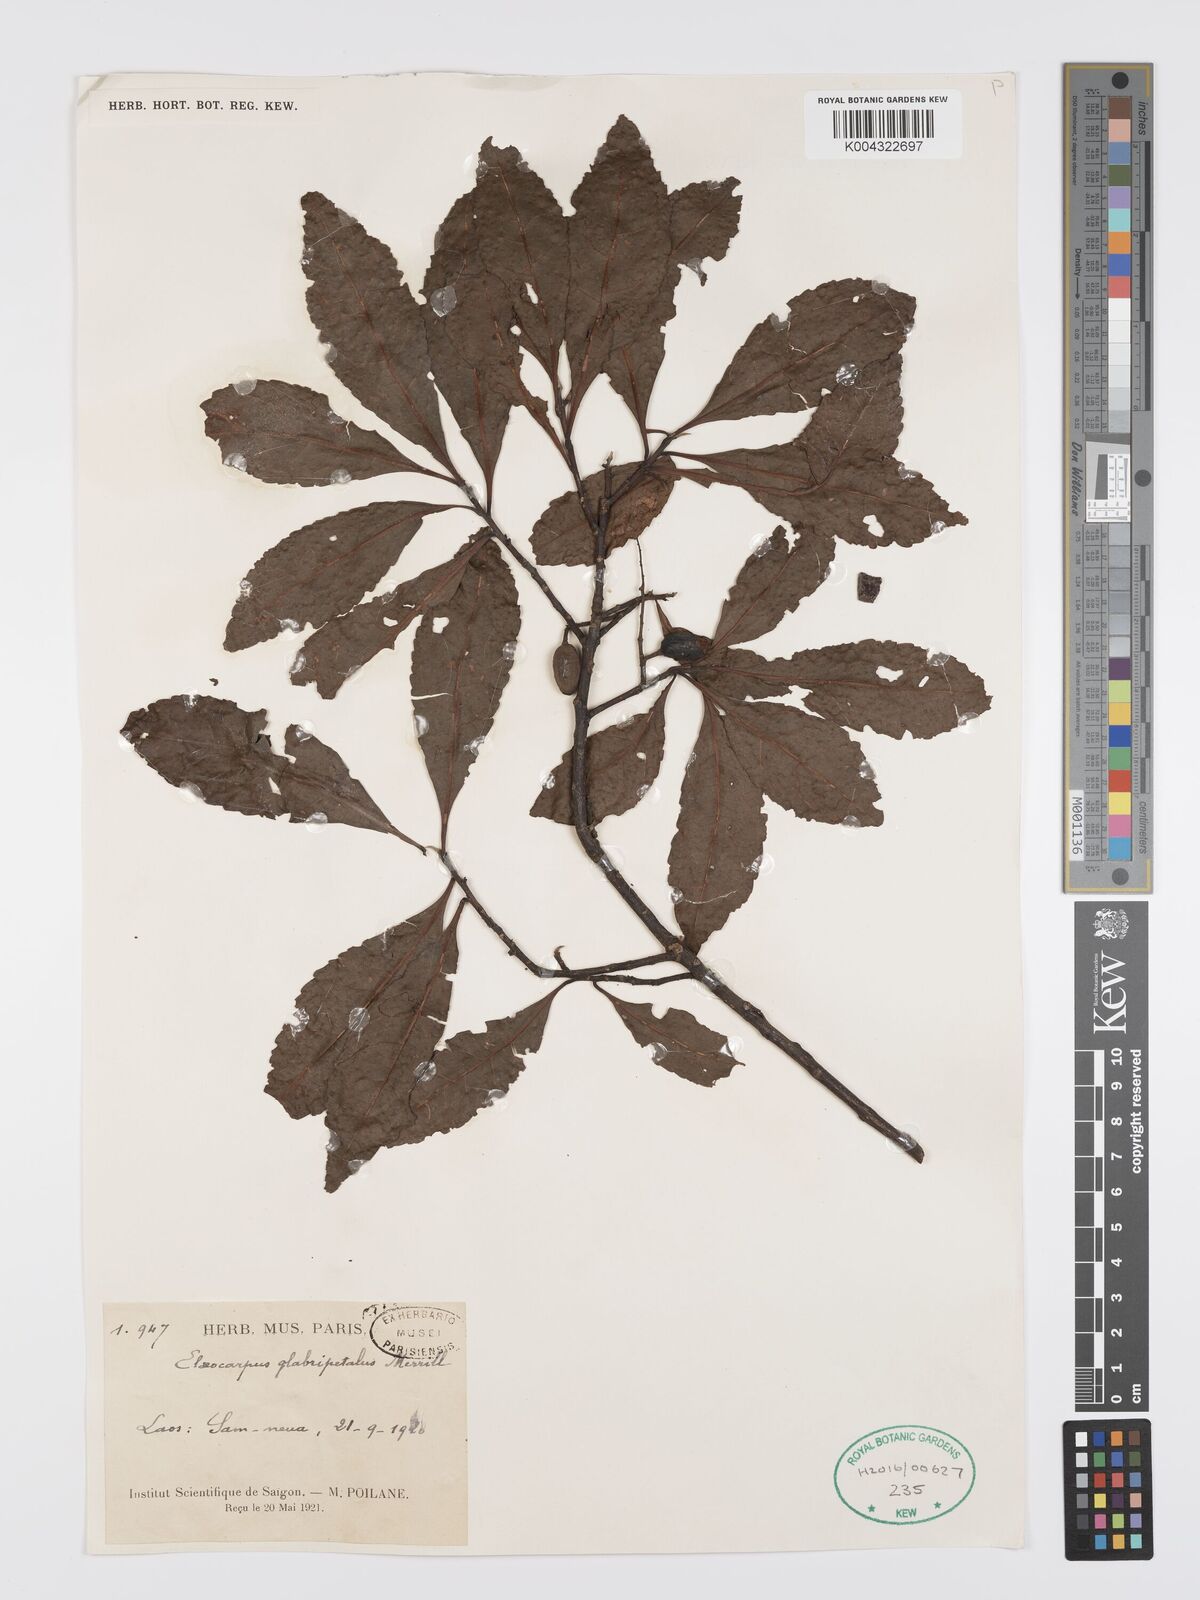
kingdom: Plantae
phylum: Tracheophyta
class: Magnoliopsida
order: Oxalidales
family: Elaeocarpaceae
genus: Elaeocarpus
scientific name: Elaeocarpus glabripetalus
